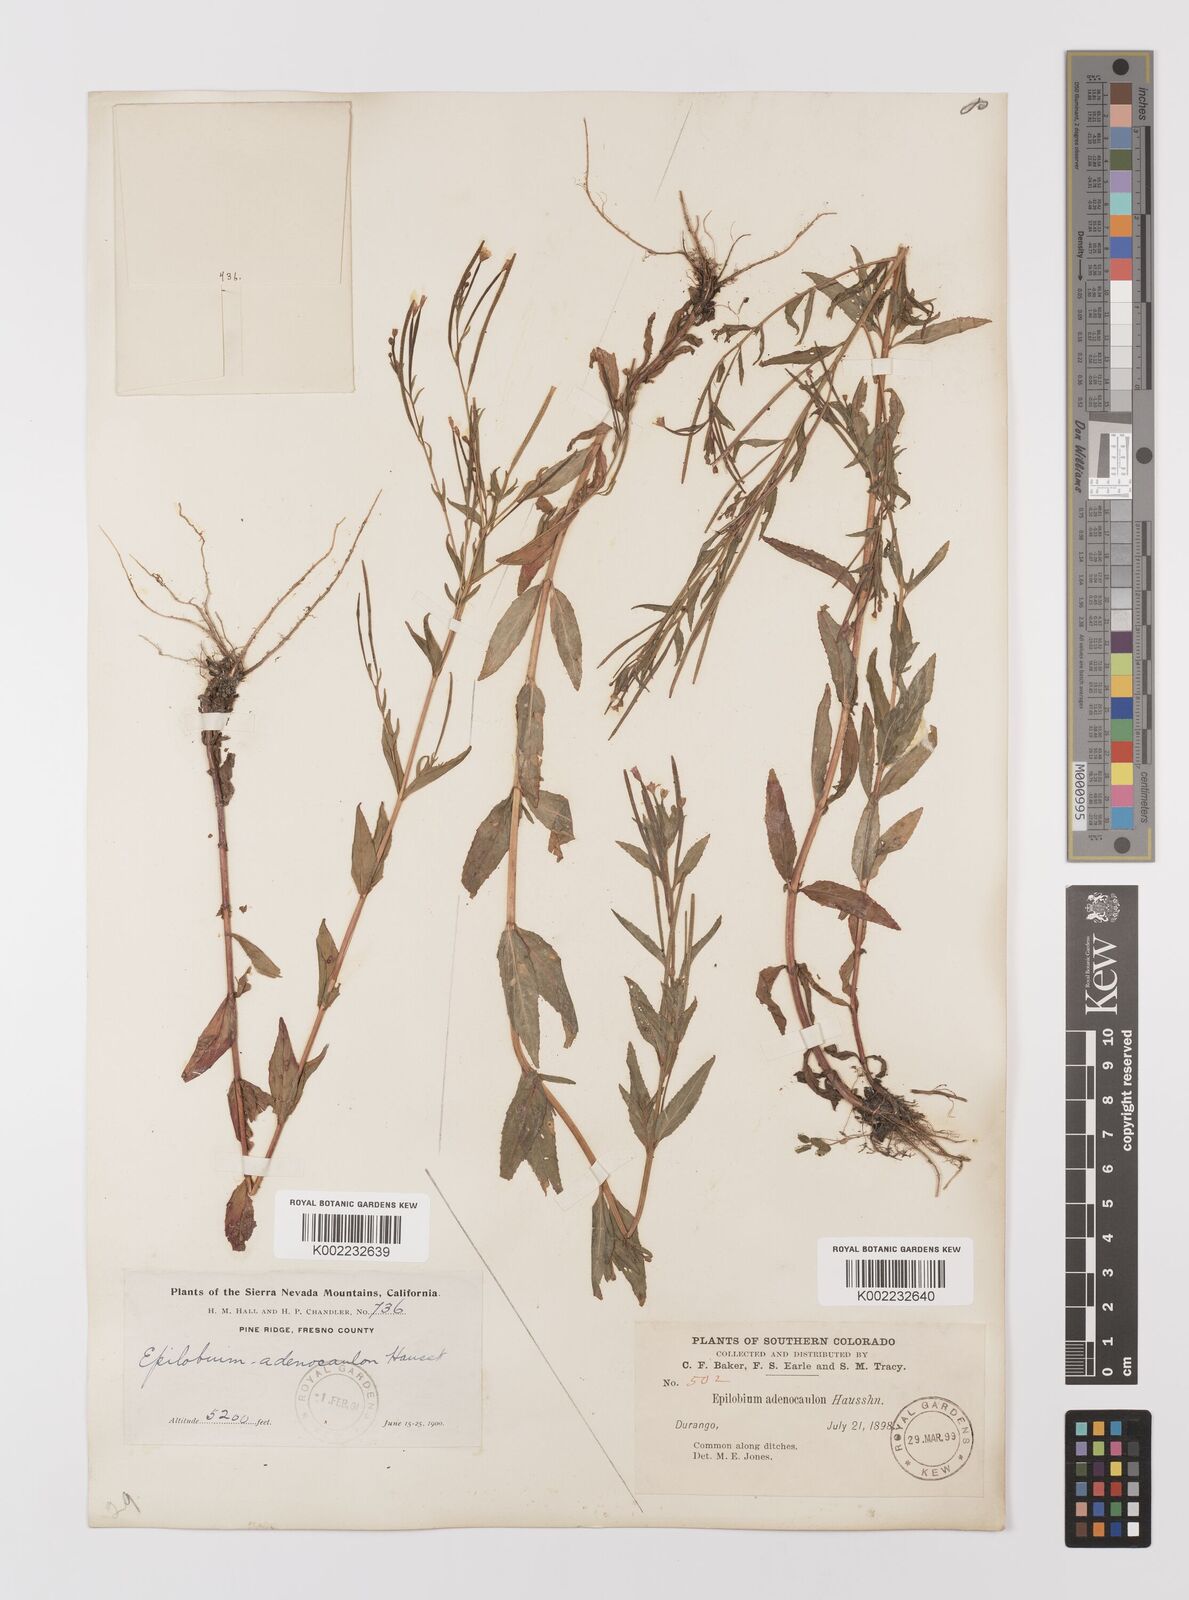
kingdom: Plantae
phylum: Tracheophyta
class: Magnoliopsida
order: Myrtales
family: Onagraceae
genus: Epilobium
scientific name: Epilobium ciliatum
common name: American willowherb
